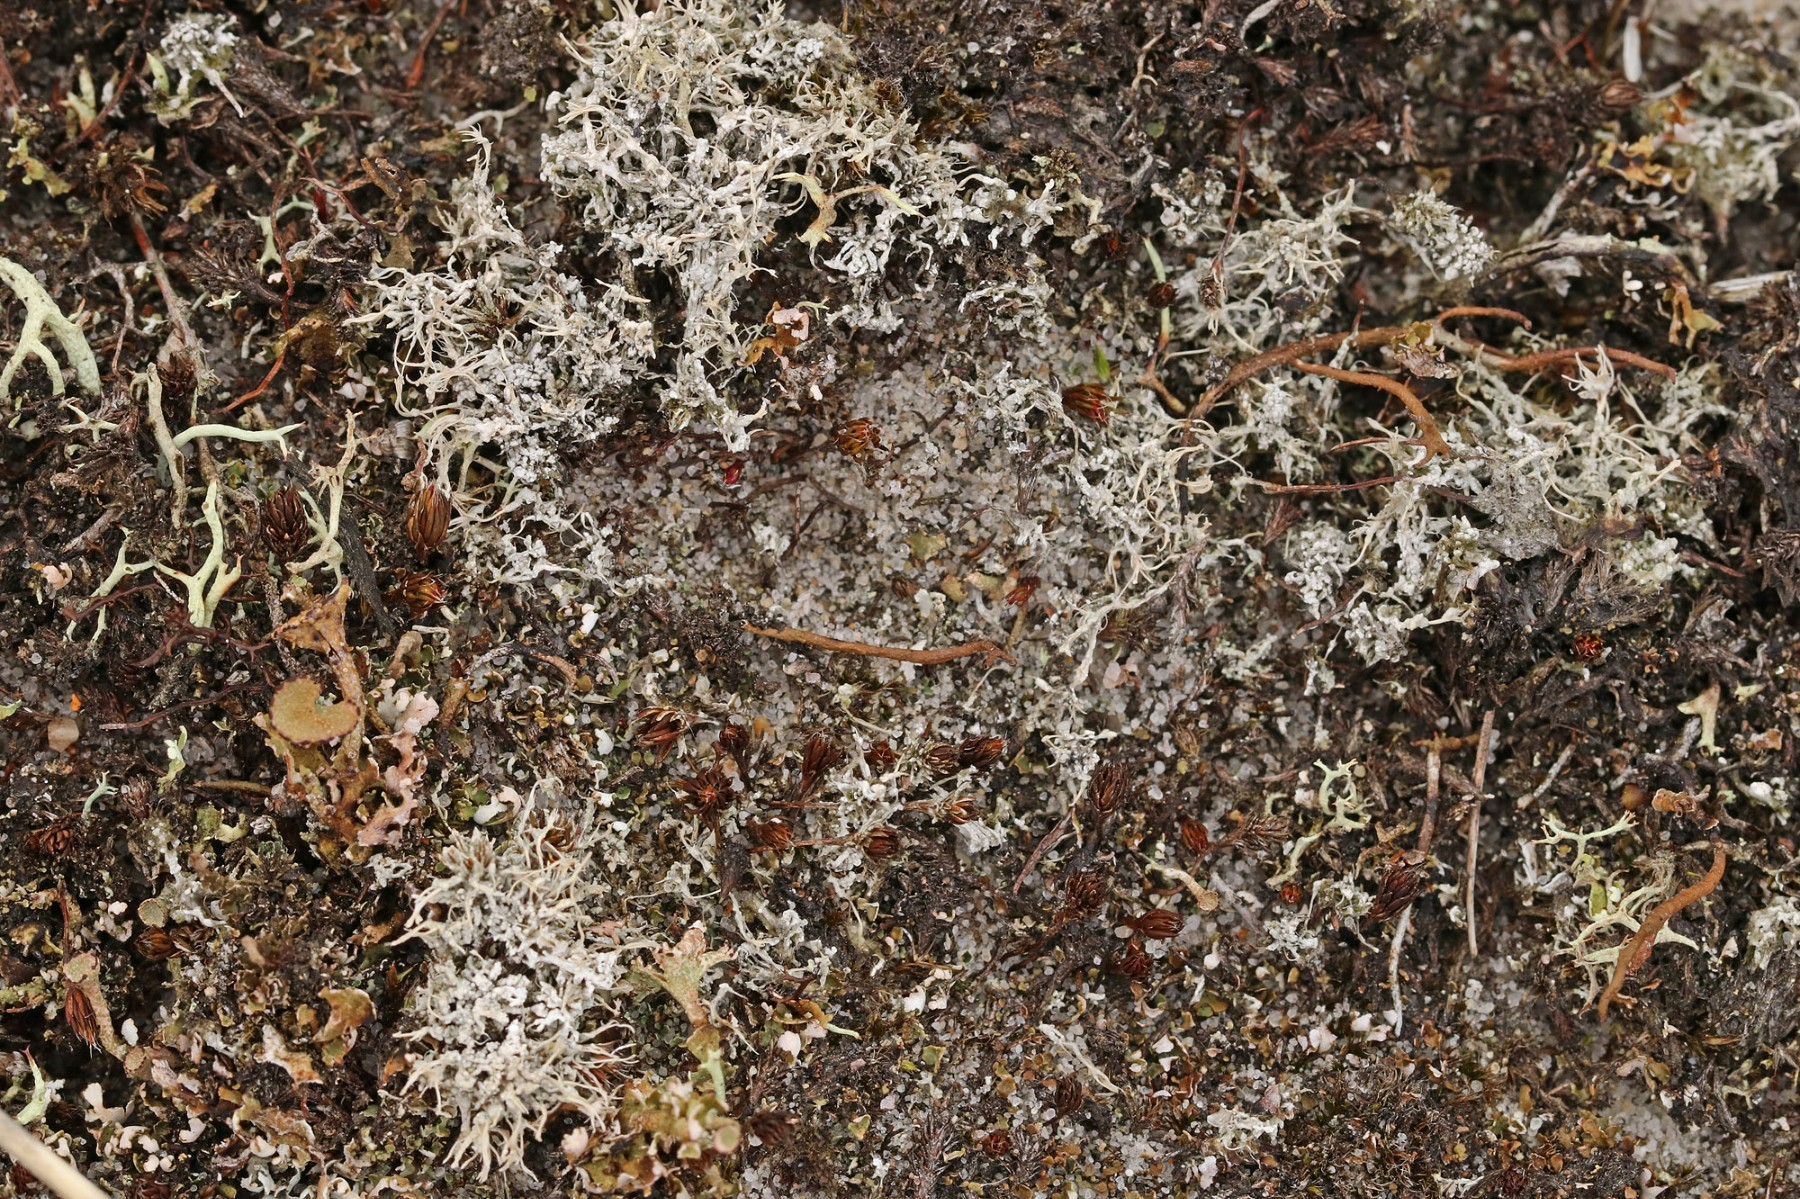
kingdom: Fungi
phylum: Ascomycota
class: Lecanoromycetes
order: Pertusariales
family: Ochrolechiaceae
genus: Ochrolechia
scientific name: Ochrolechia frigida
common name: fjeld-blegskivelav
